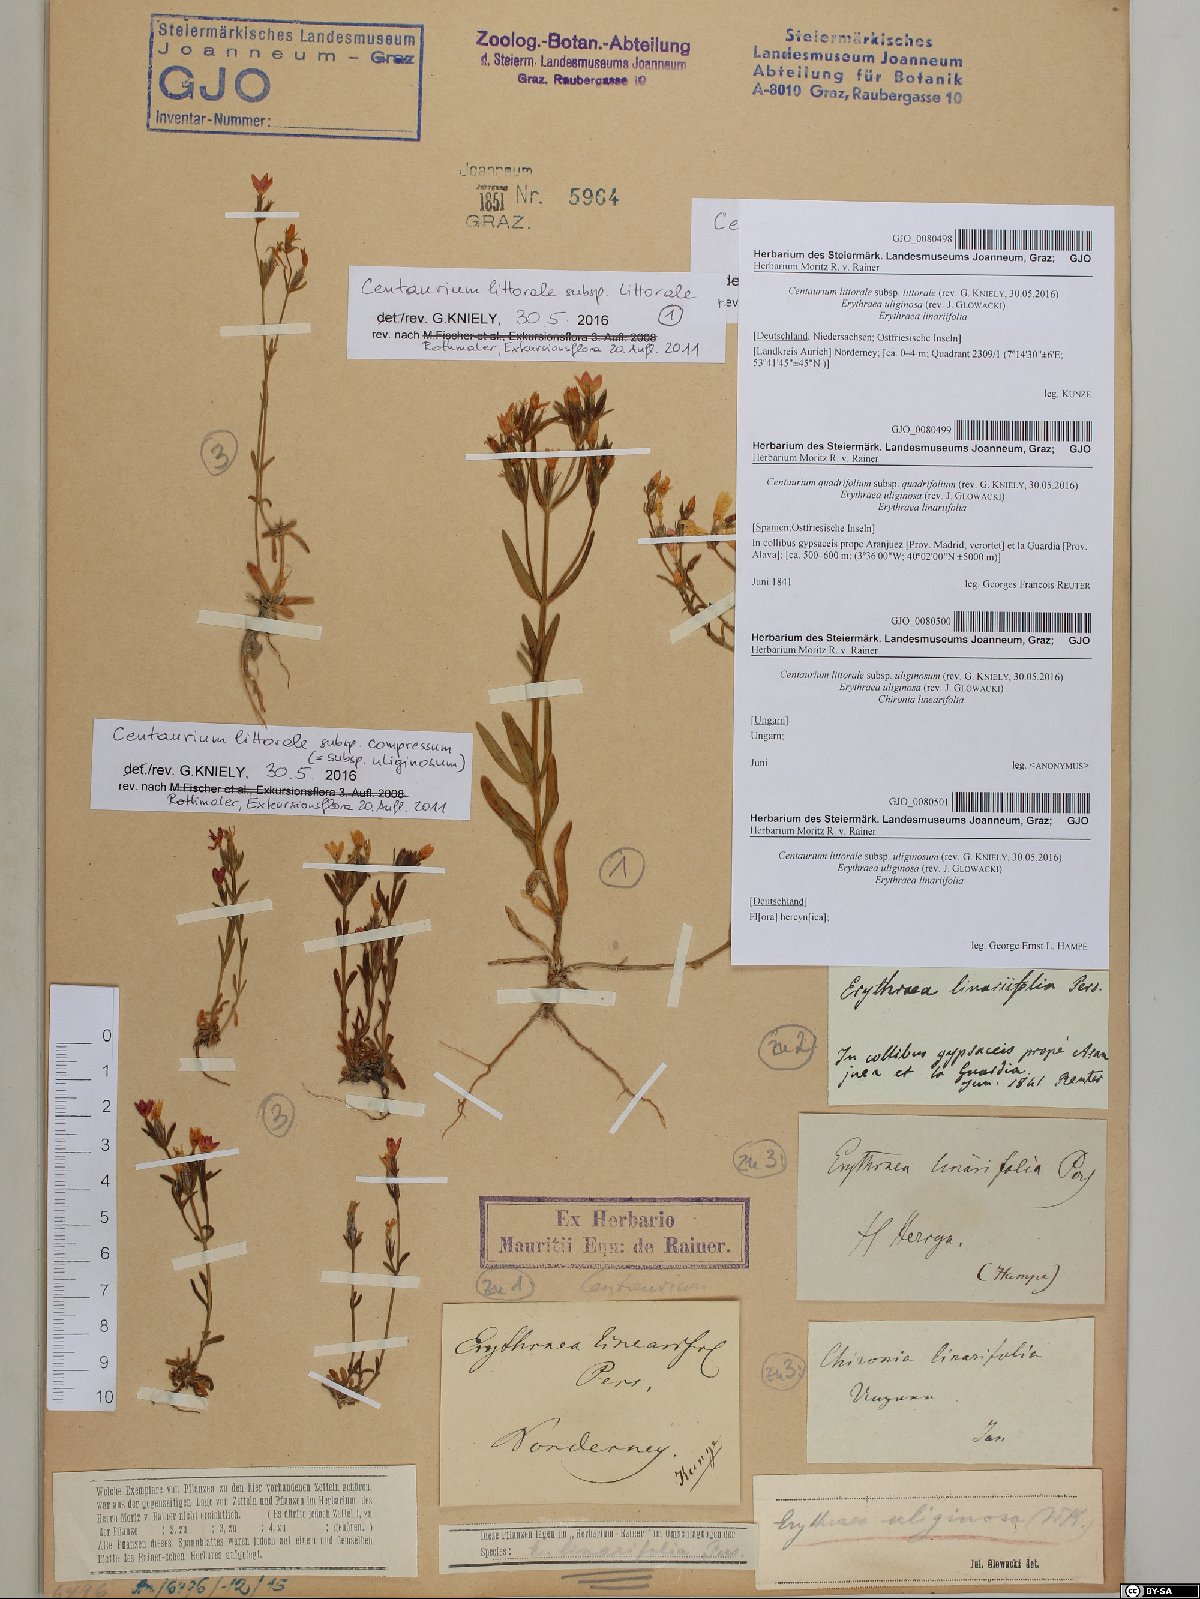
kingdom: Plantae
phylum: Tracheophyta
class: Magnoliopsida
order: Gentianales
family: Gentianaceae
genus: Centaurium
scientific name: Centaurium littorale
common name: Seaside centaury
